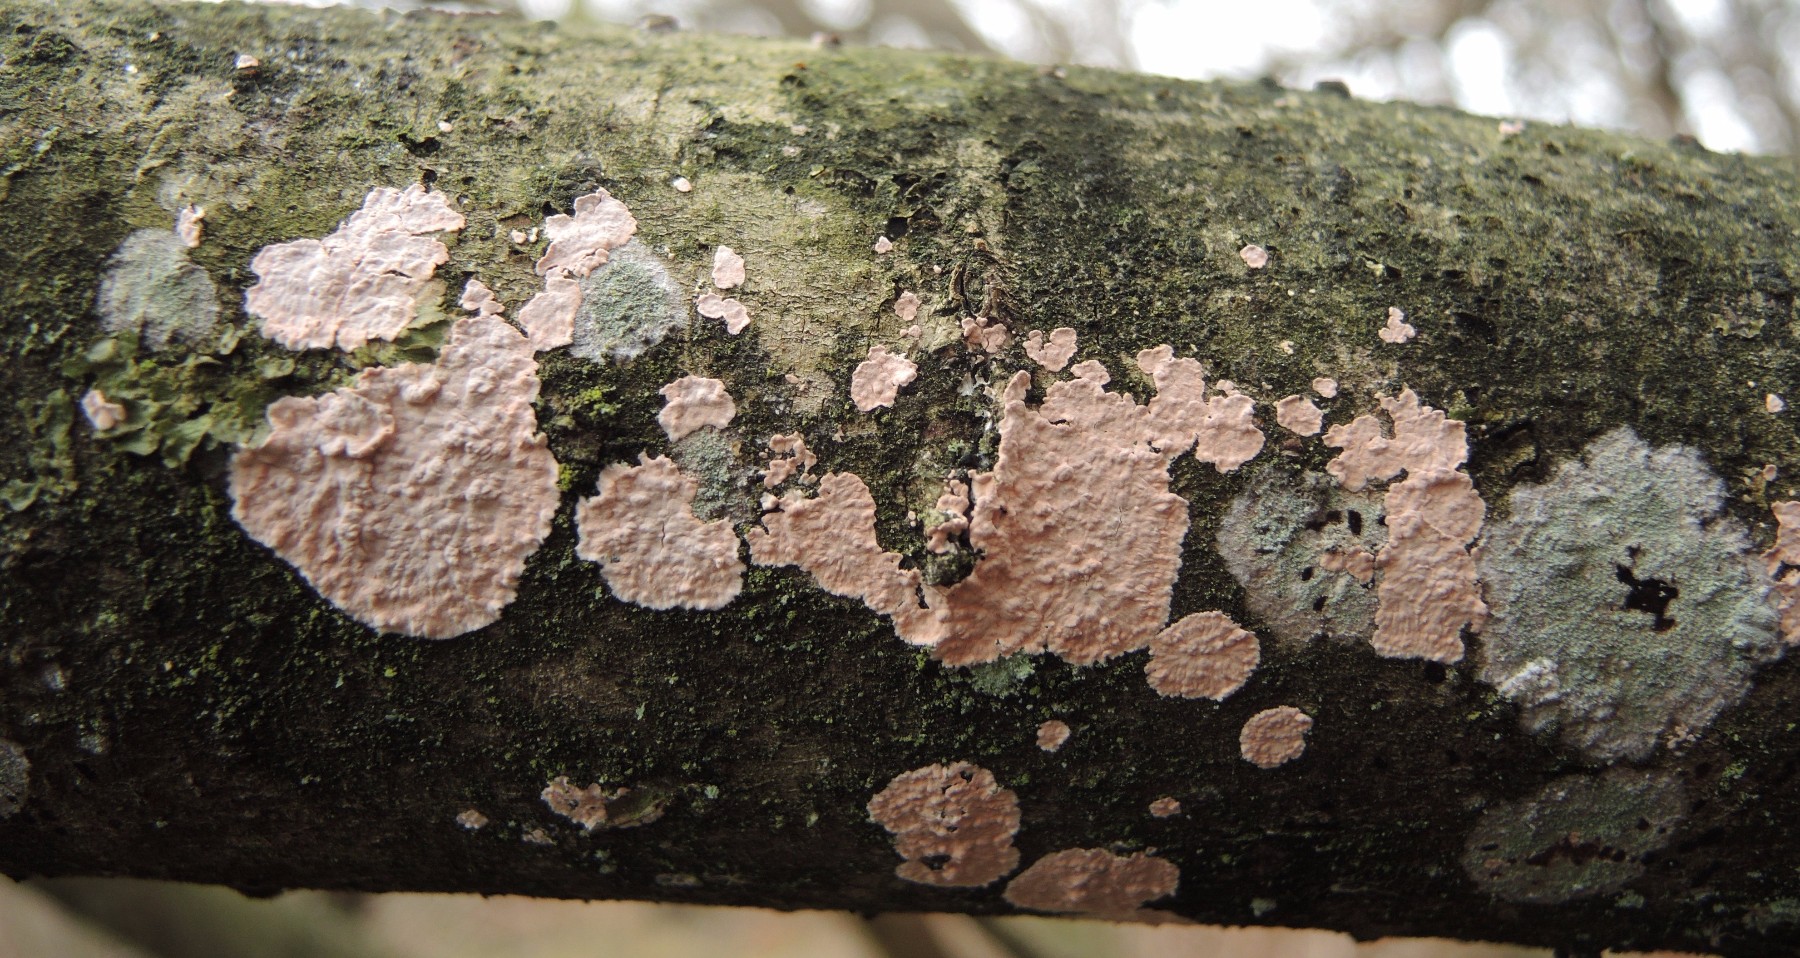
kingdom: Fungi
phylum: Basidiomycota
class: Agaricomycetes
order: Corticiales
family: Corticiaceae
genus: Corticium
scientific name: Corticium roseum
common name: rosa barkskind
